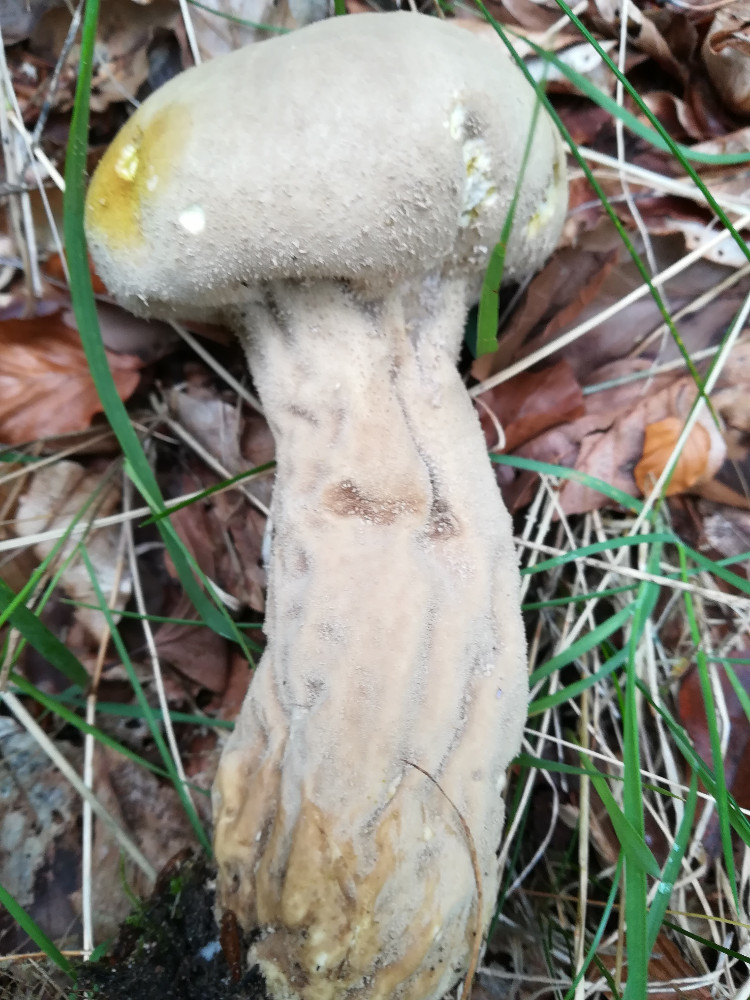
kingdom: Fungi
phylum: Basidiomycota
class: Agaricomycetes
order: Agaricales
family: Lycoperdaceae
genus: Lycoperdon
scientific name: Lycoperdon excipuliforme
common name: højstokket støvbold
